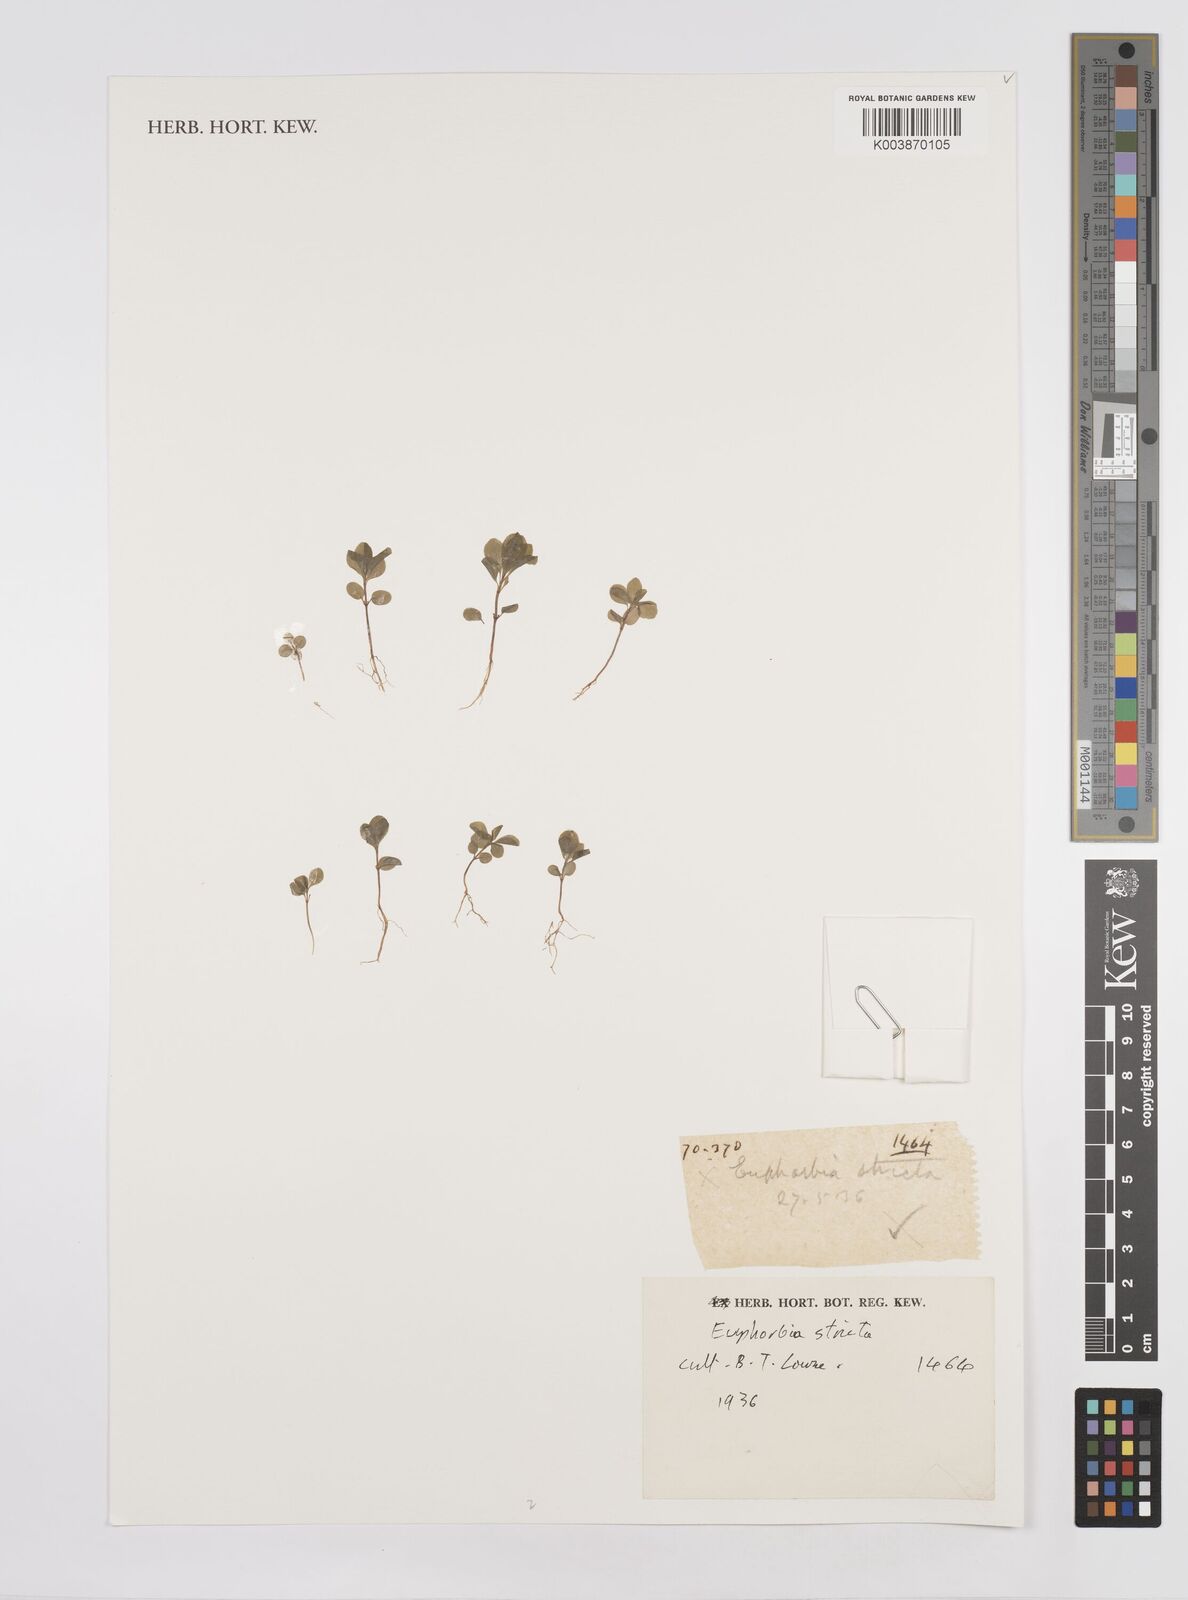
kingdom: Plantae
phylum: Tracheophyta
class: Magnoliopsida
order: Malpighiales
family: Euphorbiaceae
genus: Euphorbia
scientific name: Euphorbia stricta
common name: Upright spurge
